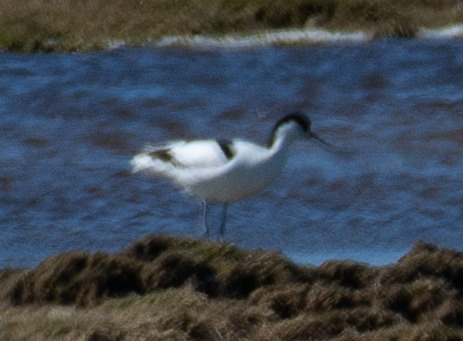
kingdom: Animalia
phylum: Chordata
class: Aves
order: Charadriiformes
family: Recurvirostridae
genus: Recurvirostra
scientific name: Recurvirostra avosetta
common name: Klyde
